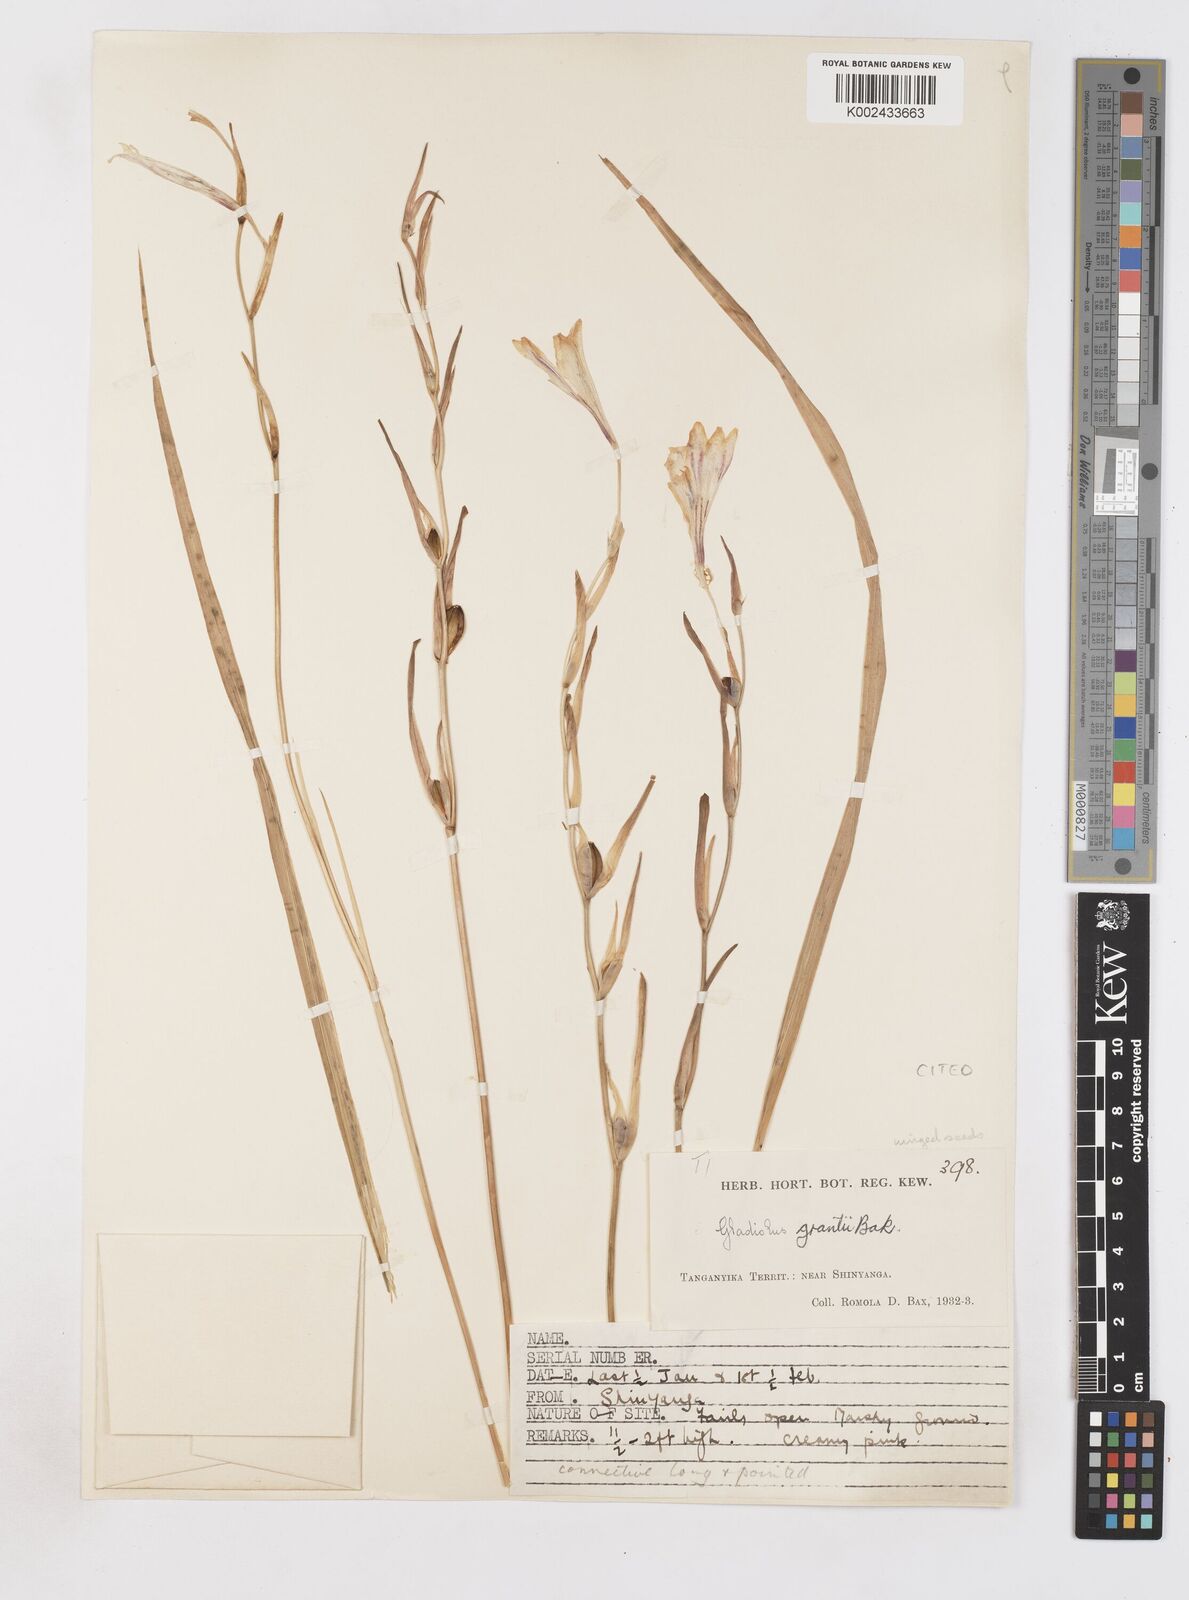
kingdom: Plantae
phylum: Tracheophyta
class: Liliopsida
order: Asparagales
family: Iridaceae
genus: Gladiolus
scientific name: Gladiolus grantii
